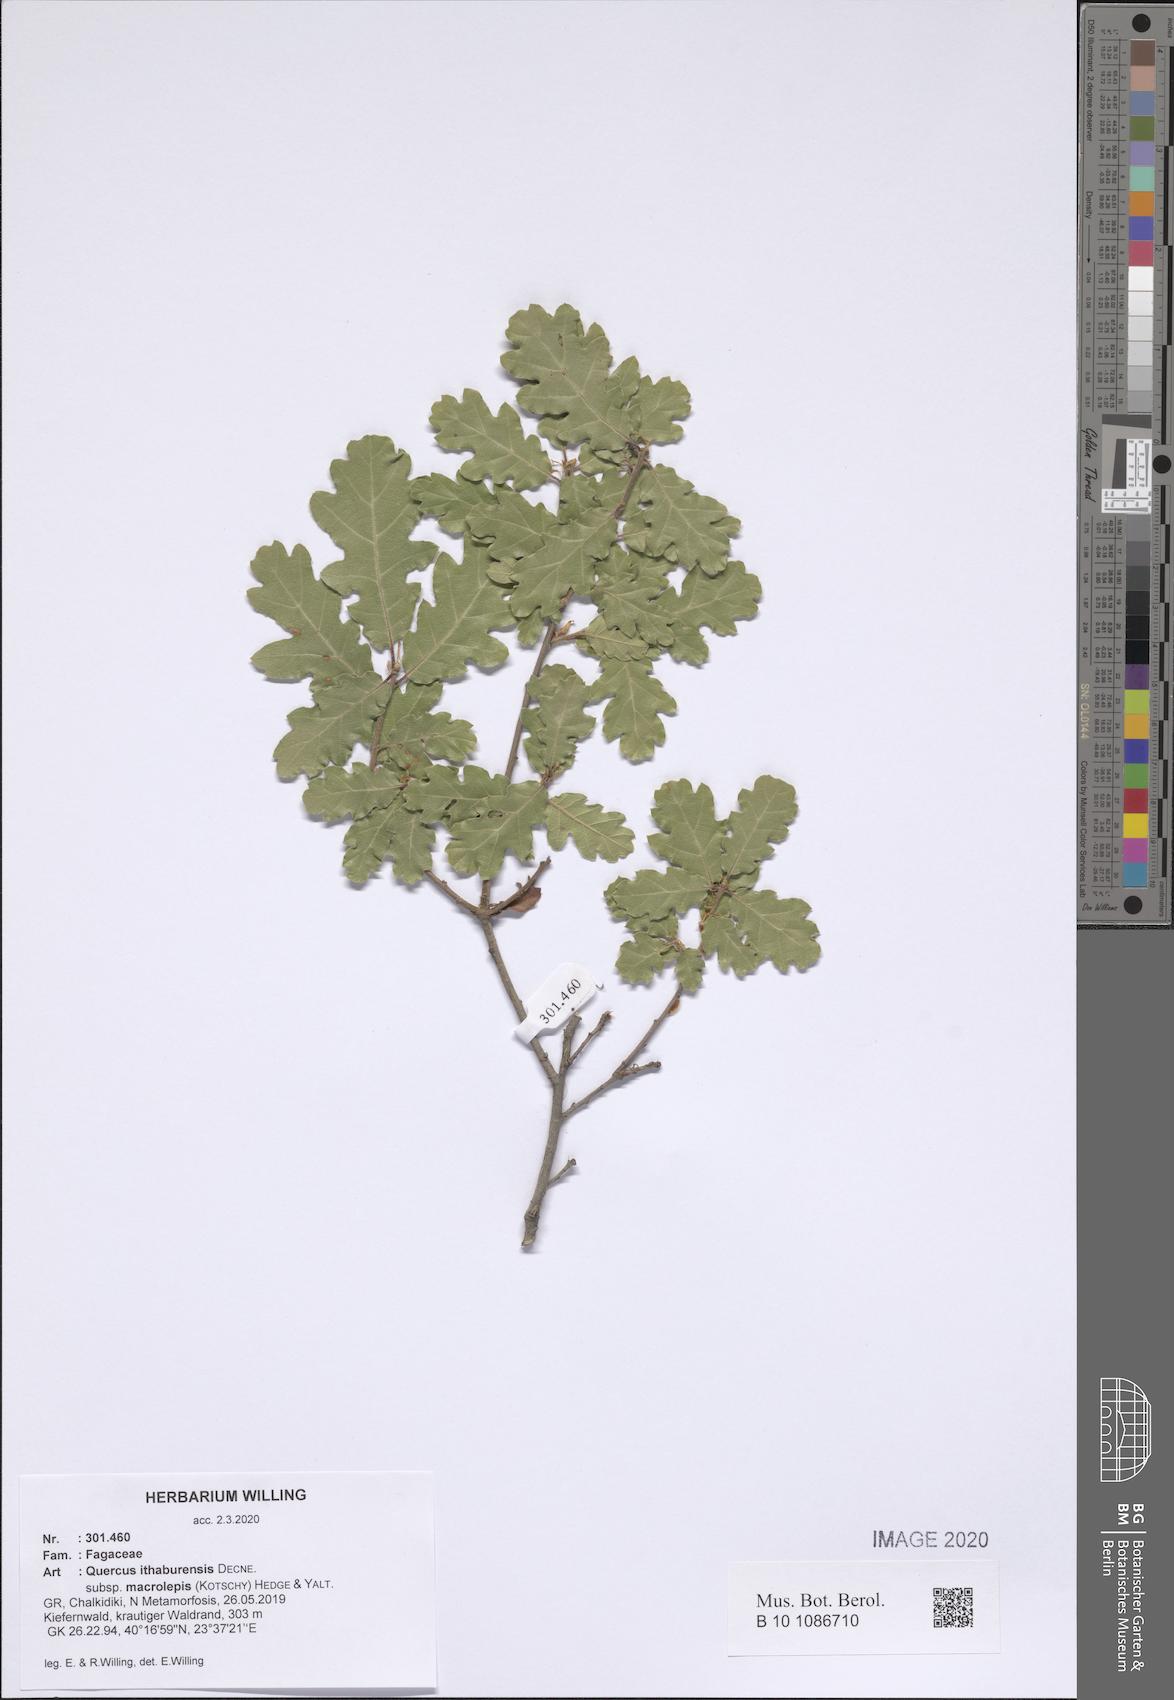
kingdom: Plantae
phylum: Tracheophyta
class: Magnoliopsida
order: Fagales
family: Fagaceae
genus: Quercus
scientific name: Quercus ithaburensis
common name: Tabor oak
